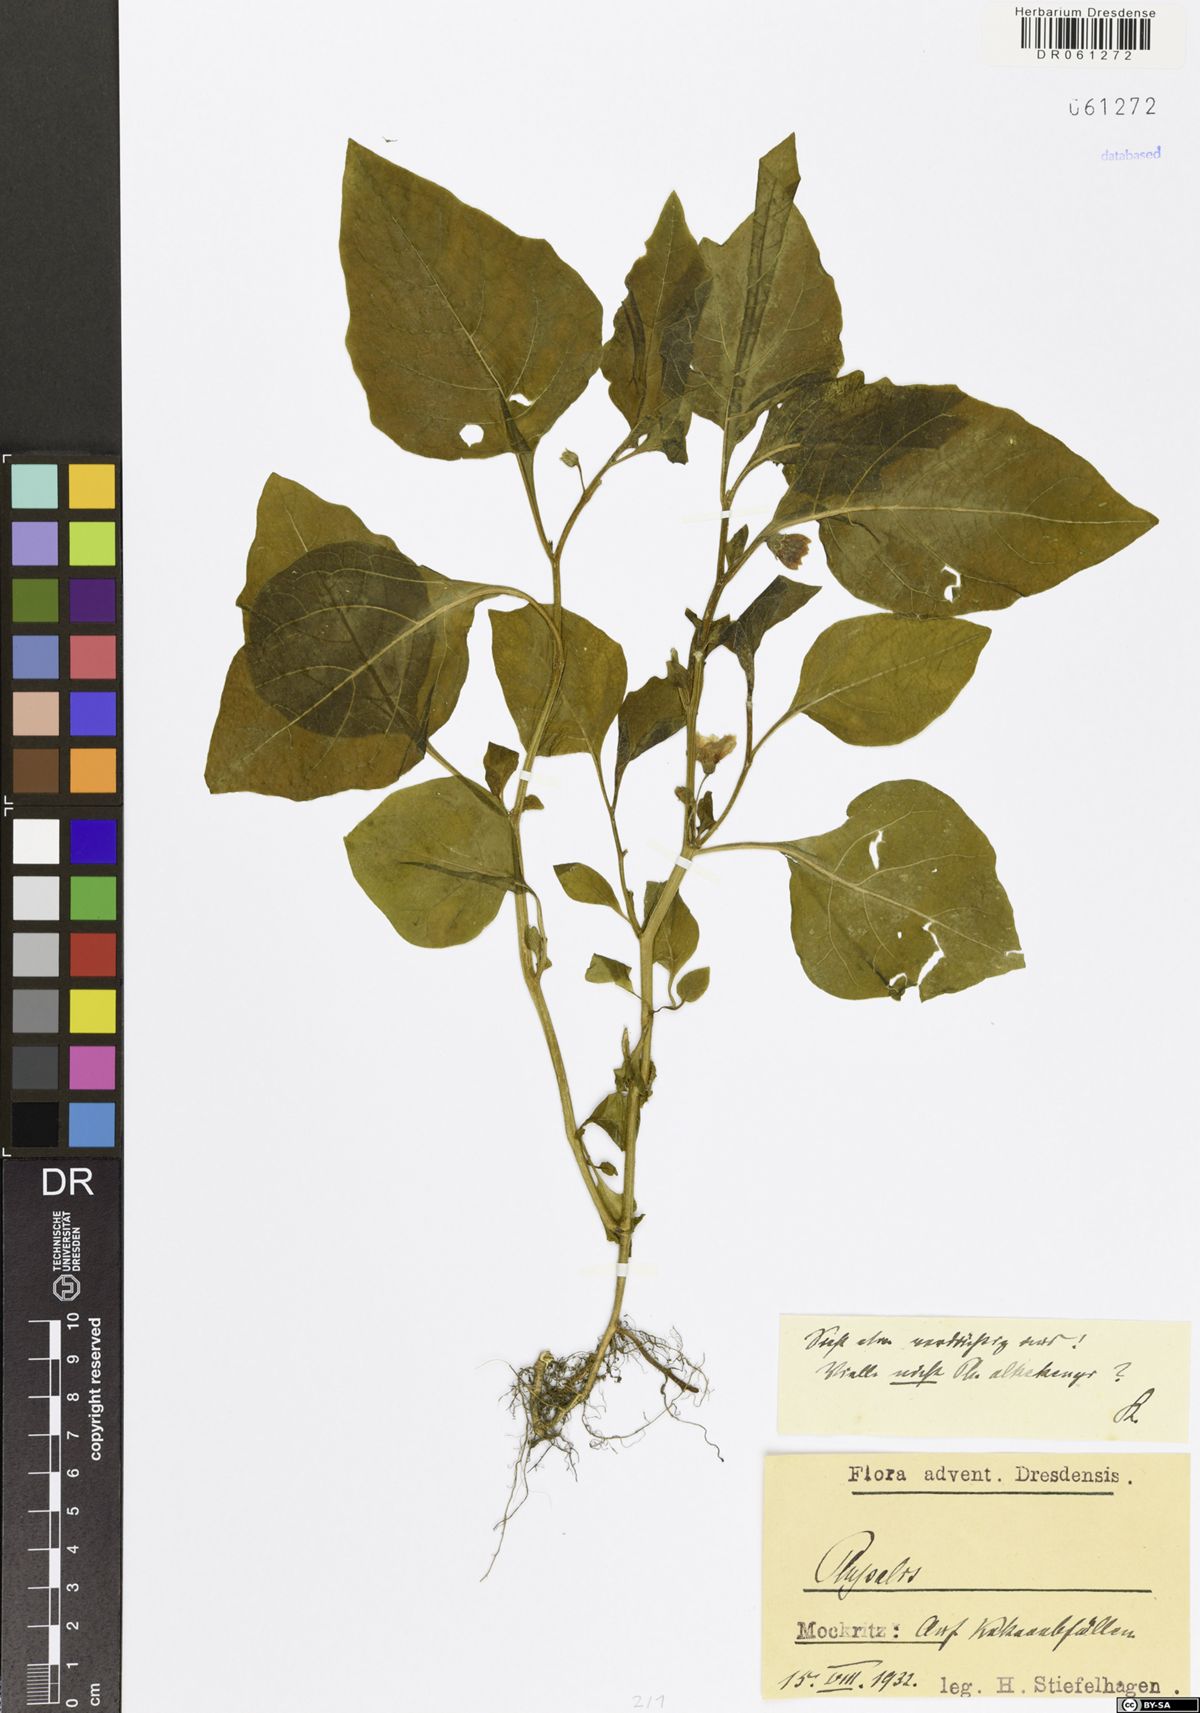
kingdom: Plantae
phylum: Tracheophyta
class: Magnoliopsida
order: Solanales
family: Solanaceae
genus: Physalis
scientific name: Physalis
